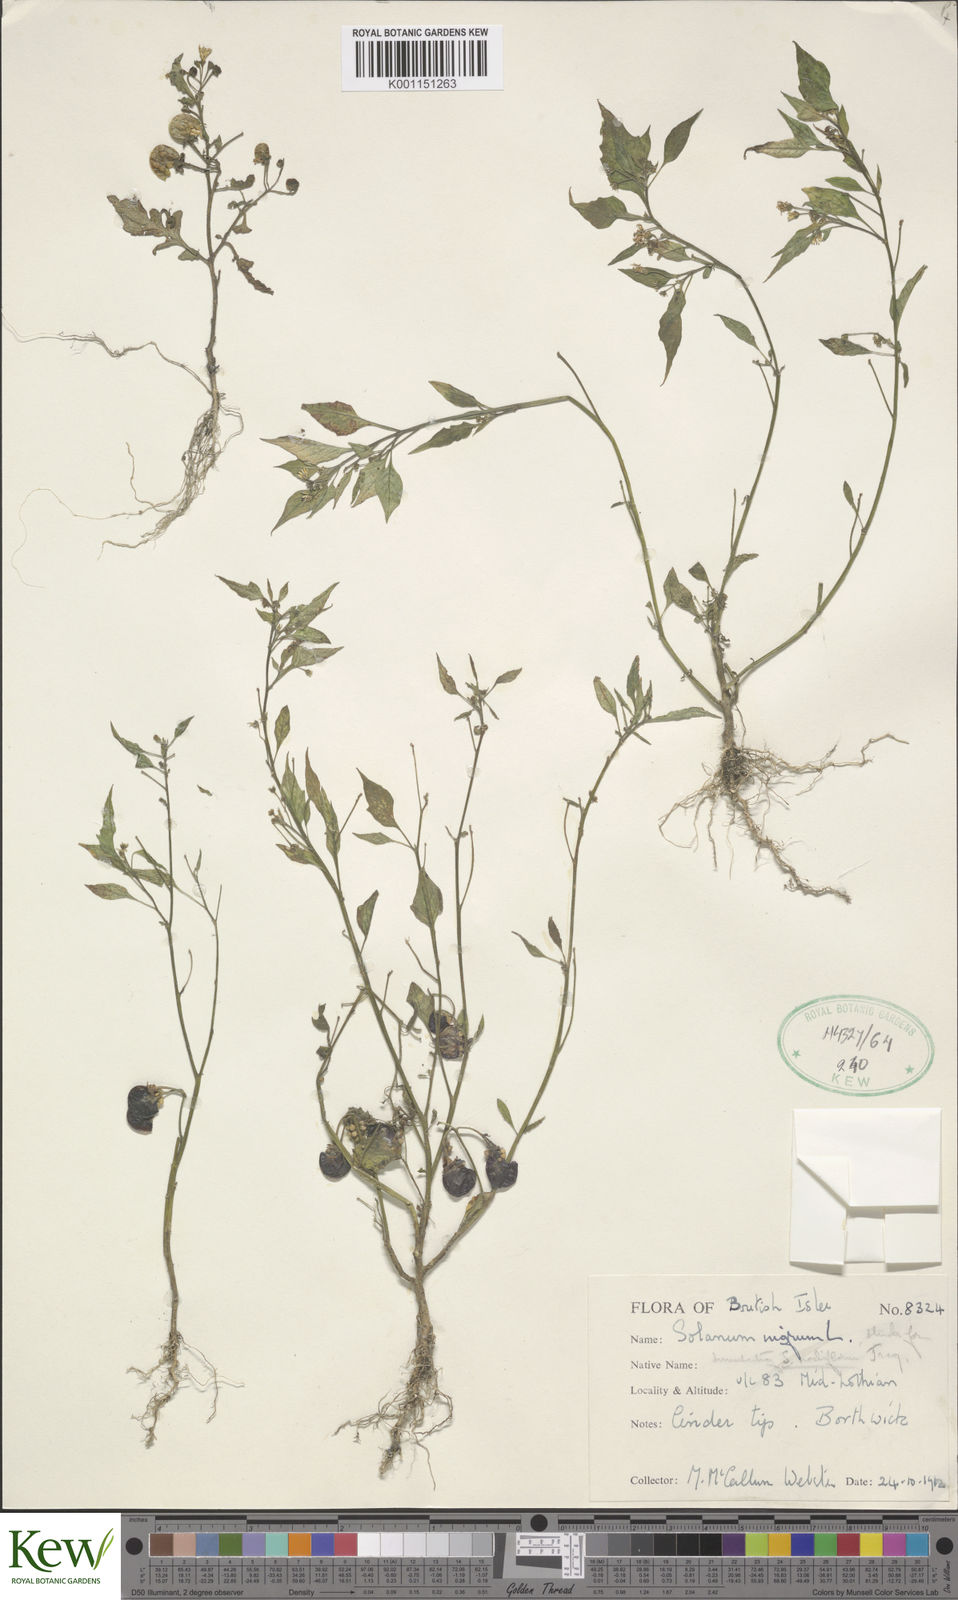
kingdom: Plantae
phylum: Tracheophyta
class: Magnoliopsida
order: Solanales
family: Solanaceae
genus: Solanum
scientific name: Solanum nigrum
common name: Black nightshade
